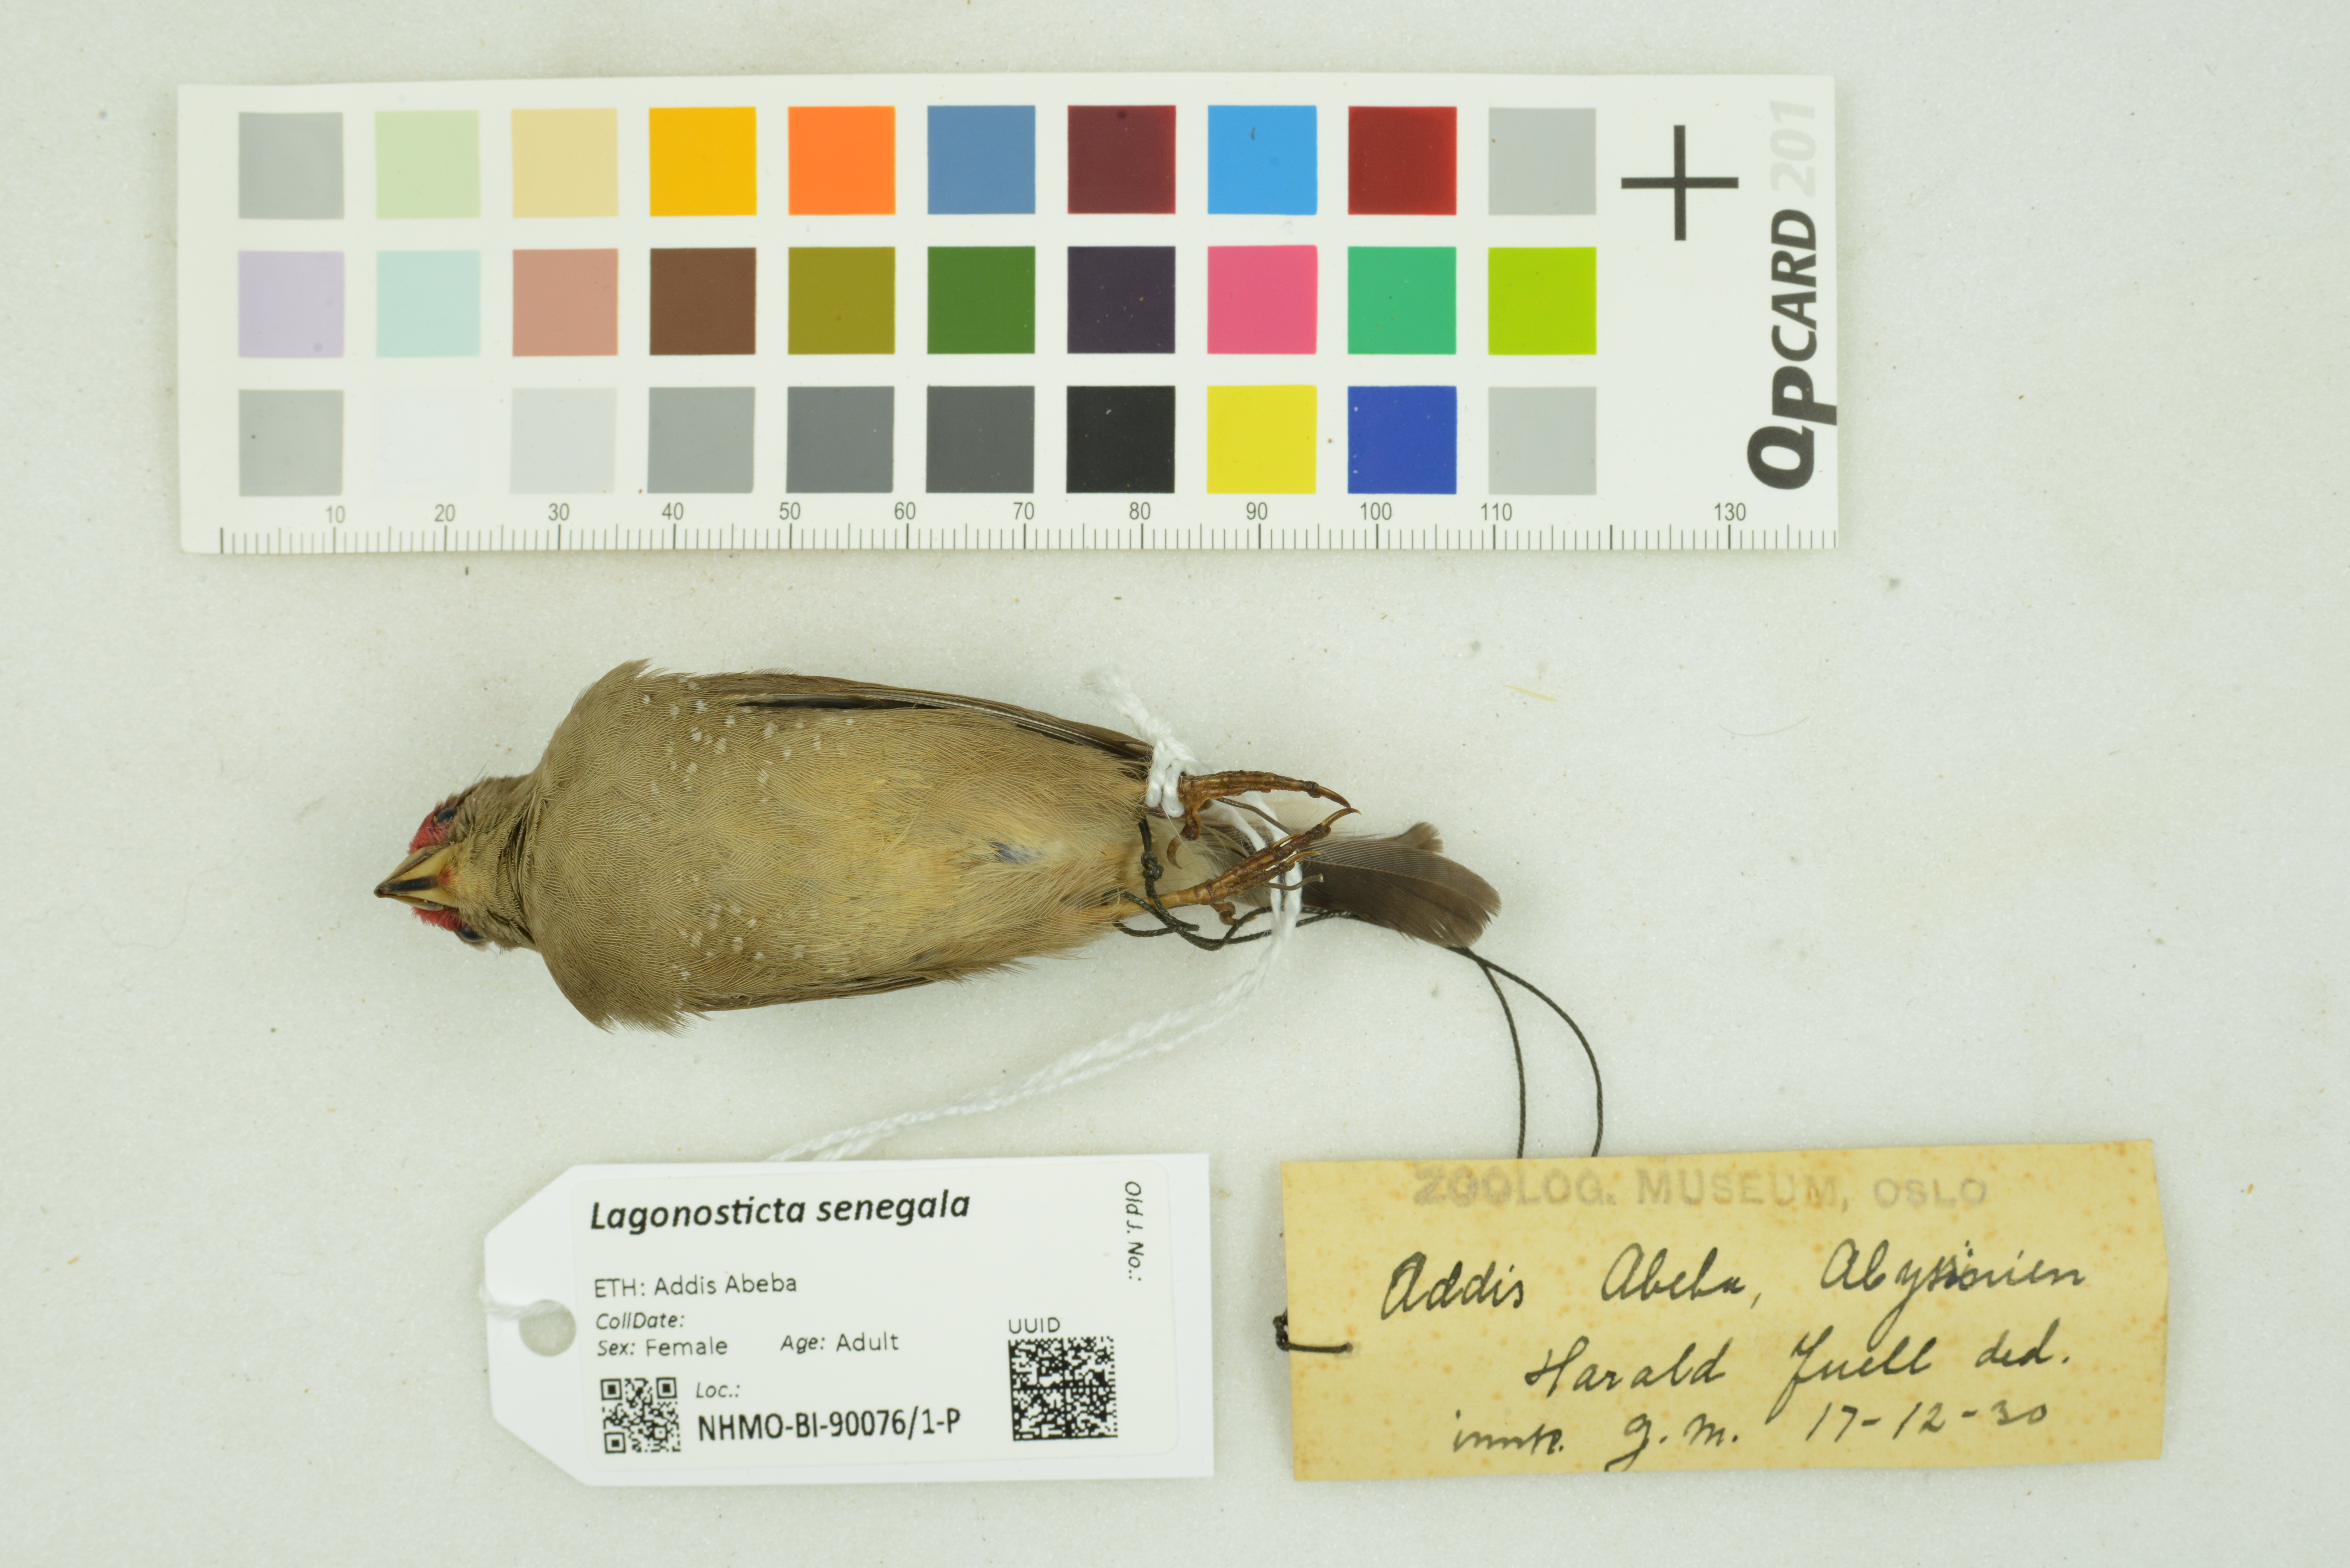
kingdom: Animalia
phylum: Chordata
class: Aves
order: Passeriformes
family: Estrildidae
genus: Lagonosticta
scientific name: Lagonosticta senegala
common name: Red-billed firefinch
